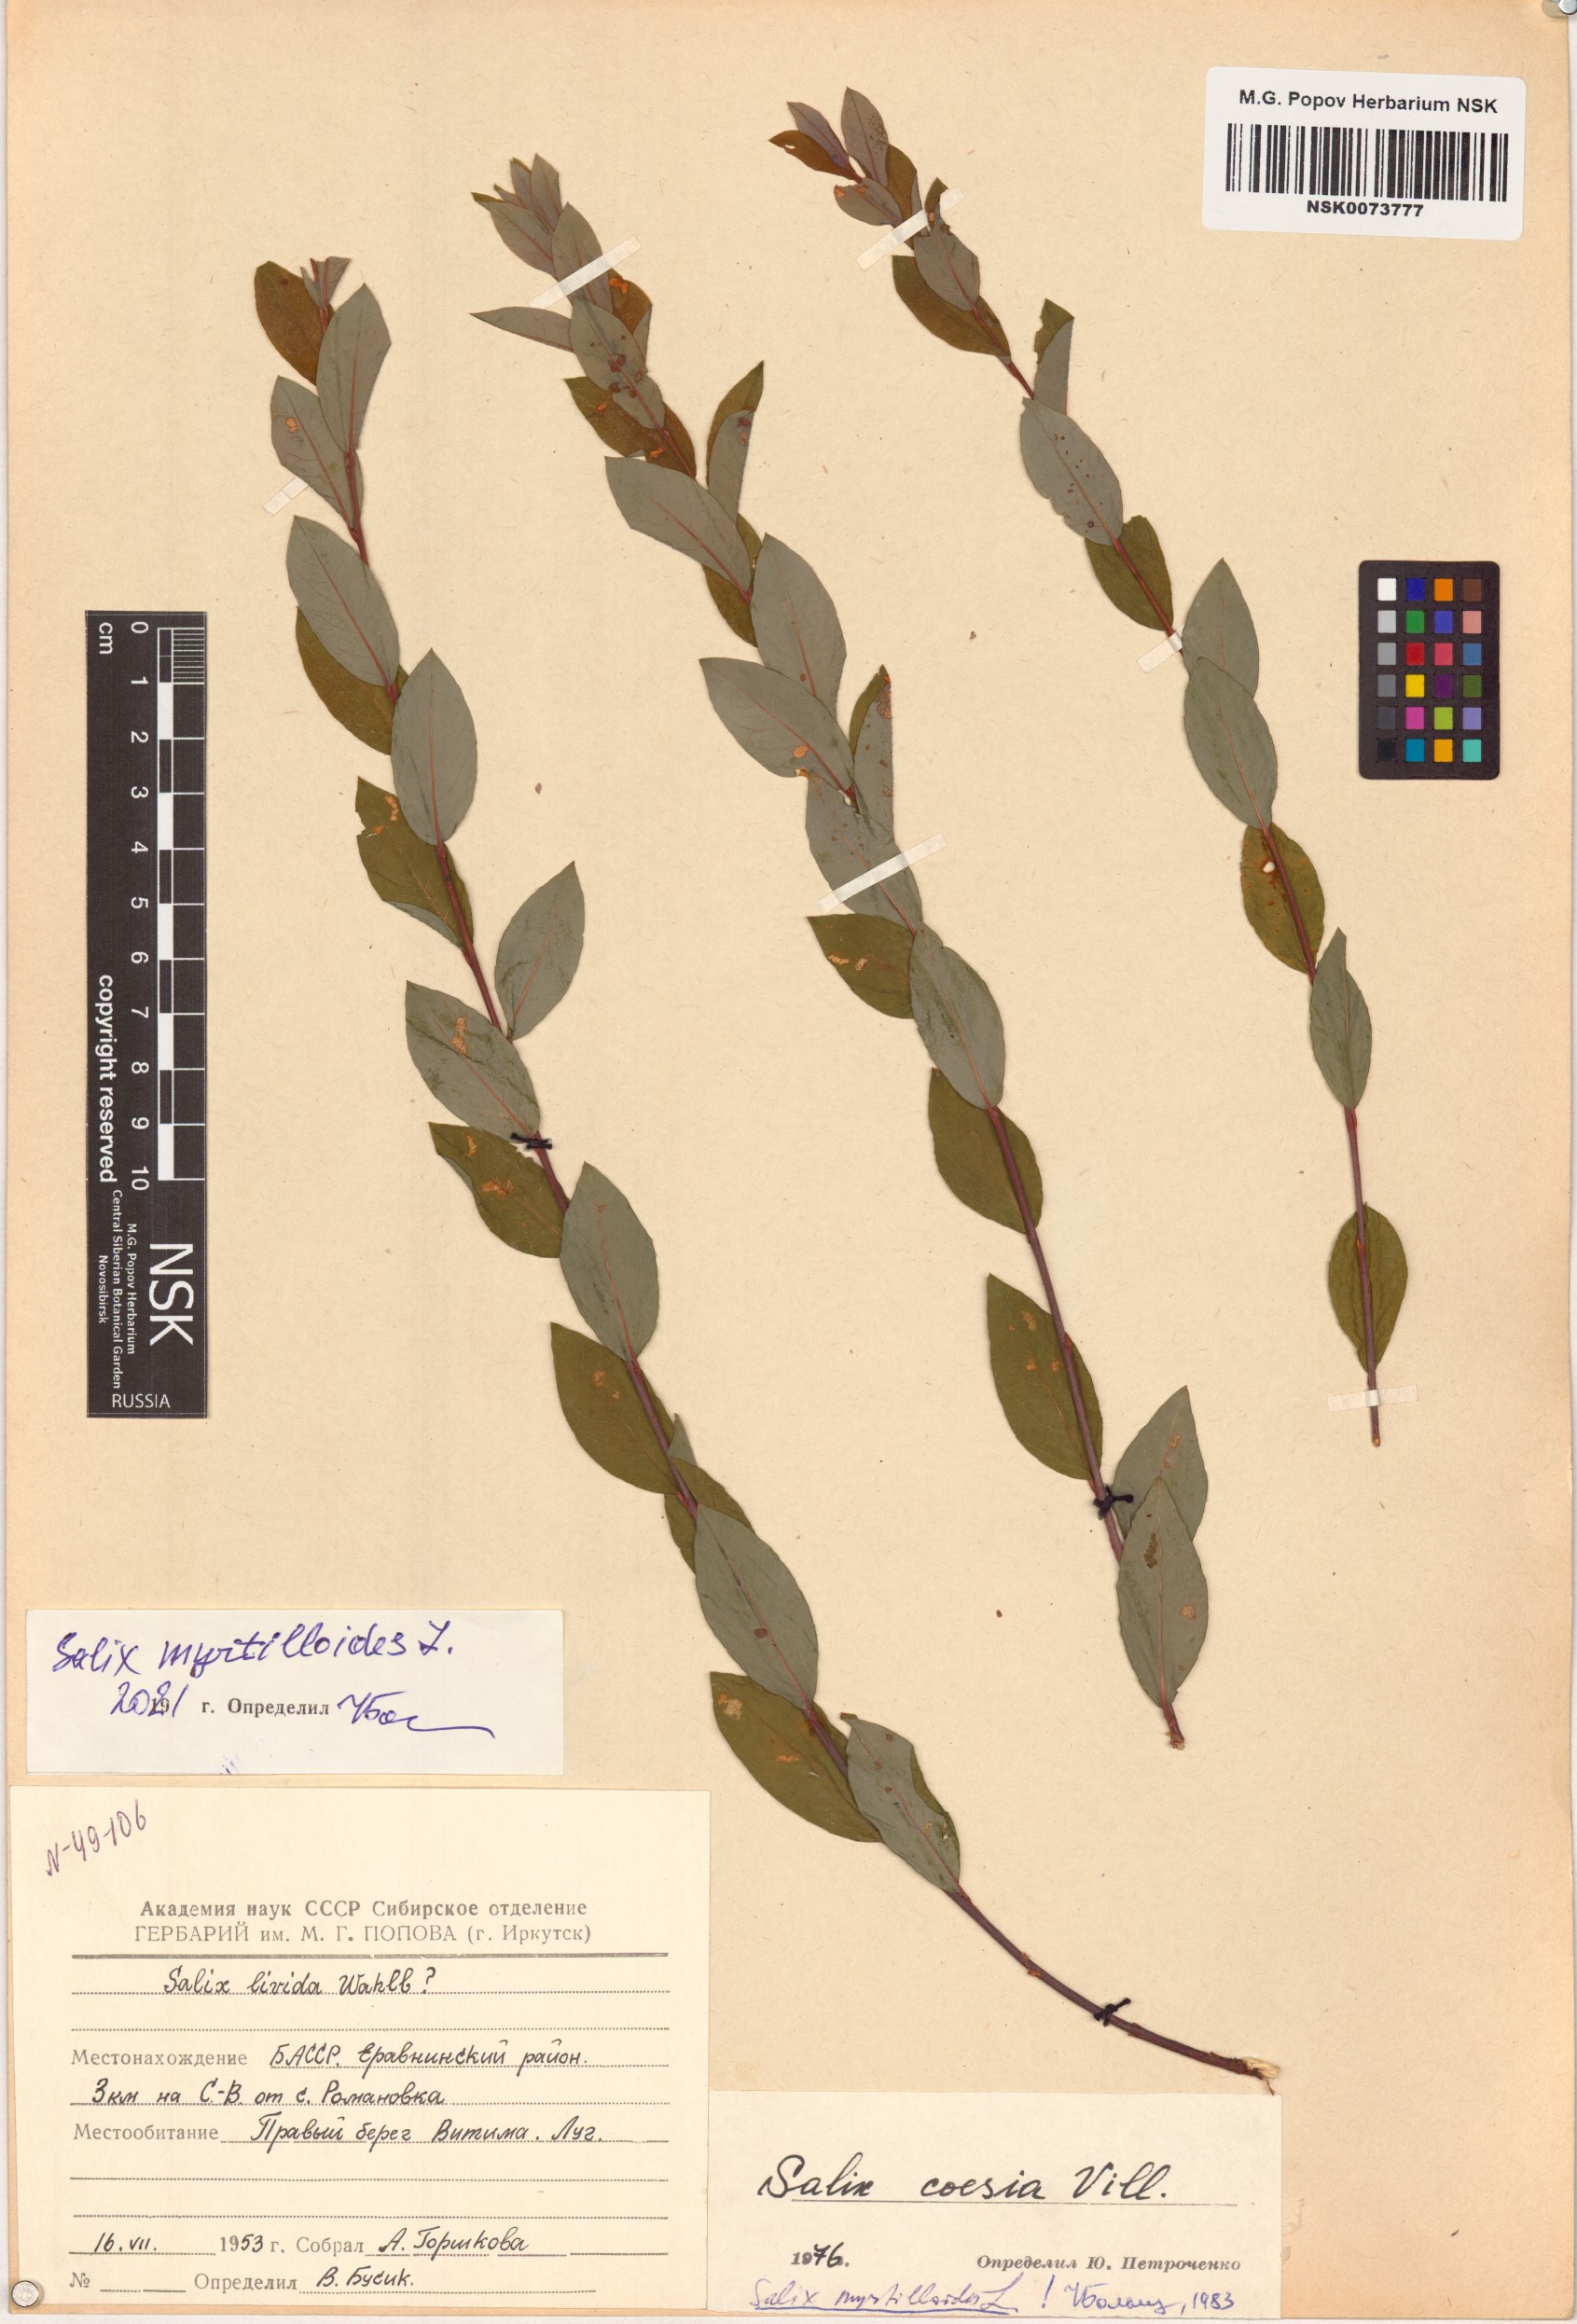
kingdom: Plantae
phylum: Tracheophyta
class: Magnoliopsida
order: Malpighiales
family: Salicaceae
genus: Salix
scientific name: Salix myrtilloides
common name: Myrtle-leaved willow
